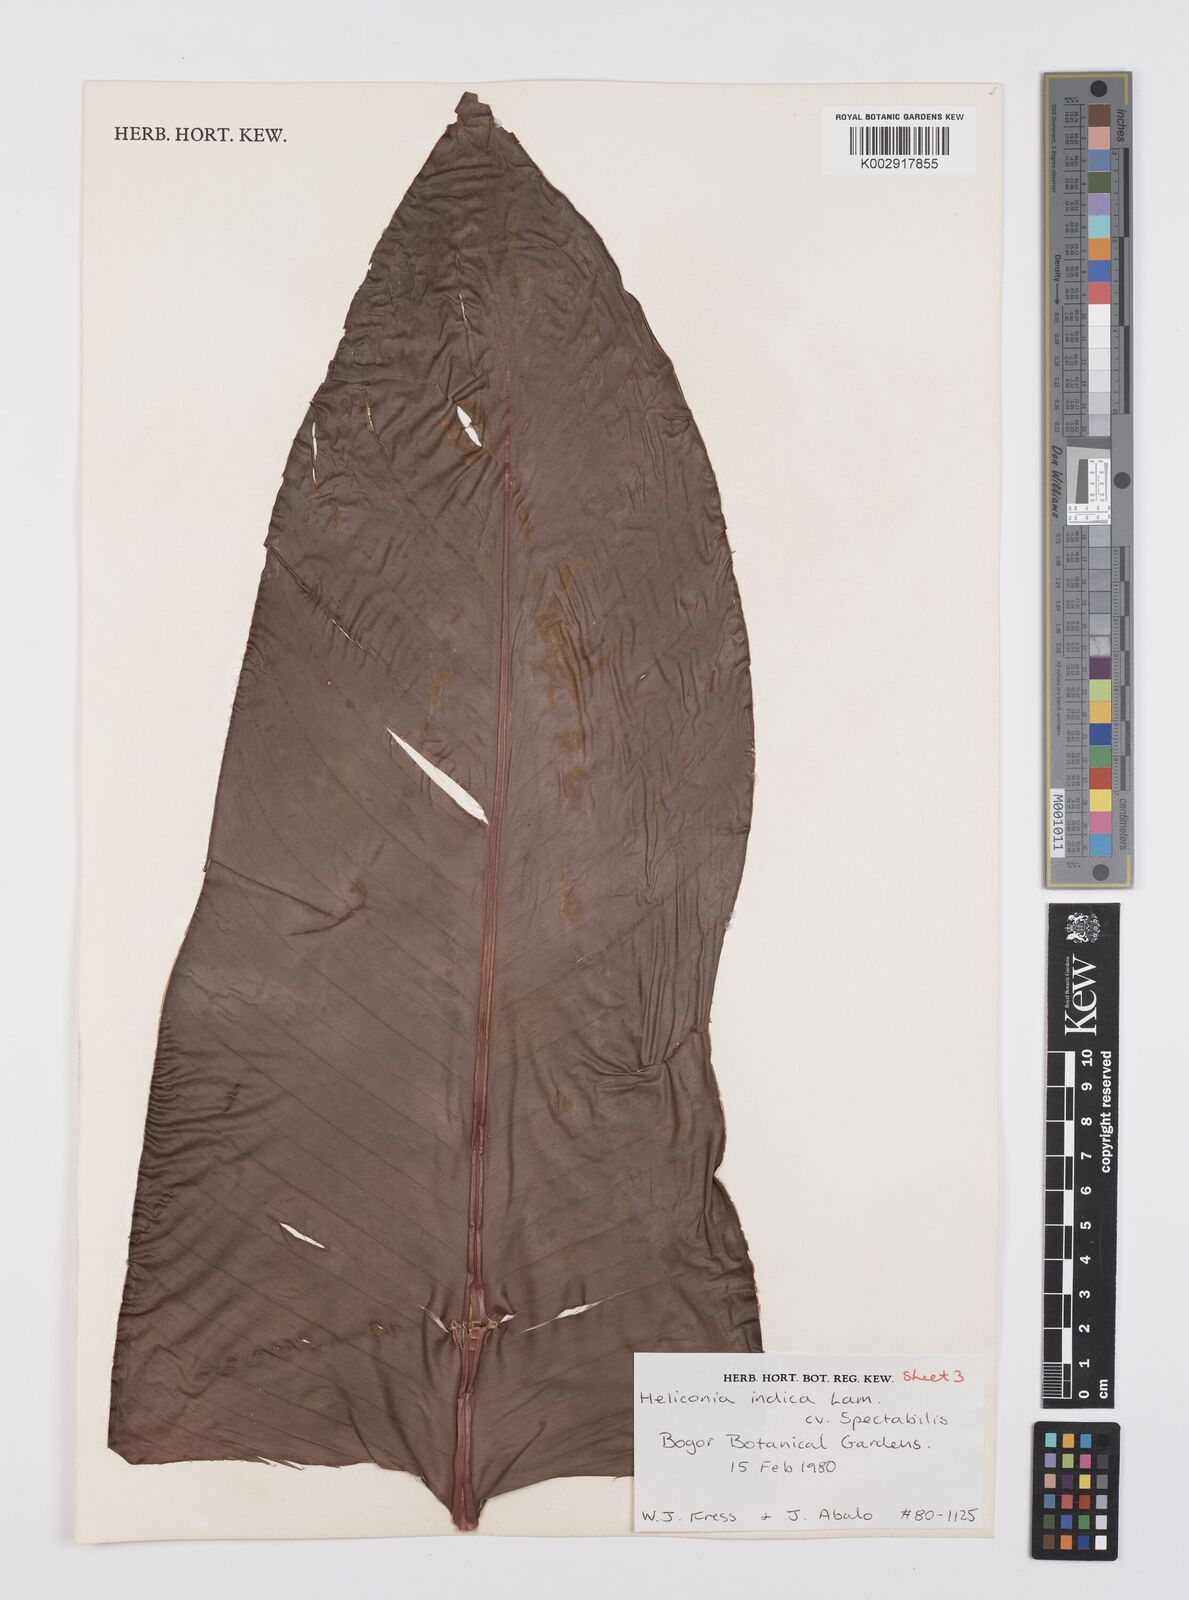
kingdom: Plantae
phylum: Tracheophyta
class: Liliopsida
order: Zingiberales
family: Heliconiaceae
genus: Heliconia
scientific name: Heliconia indica
